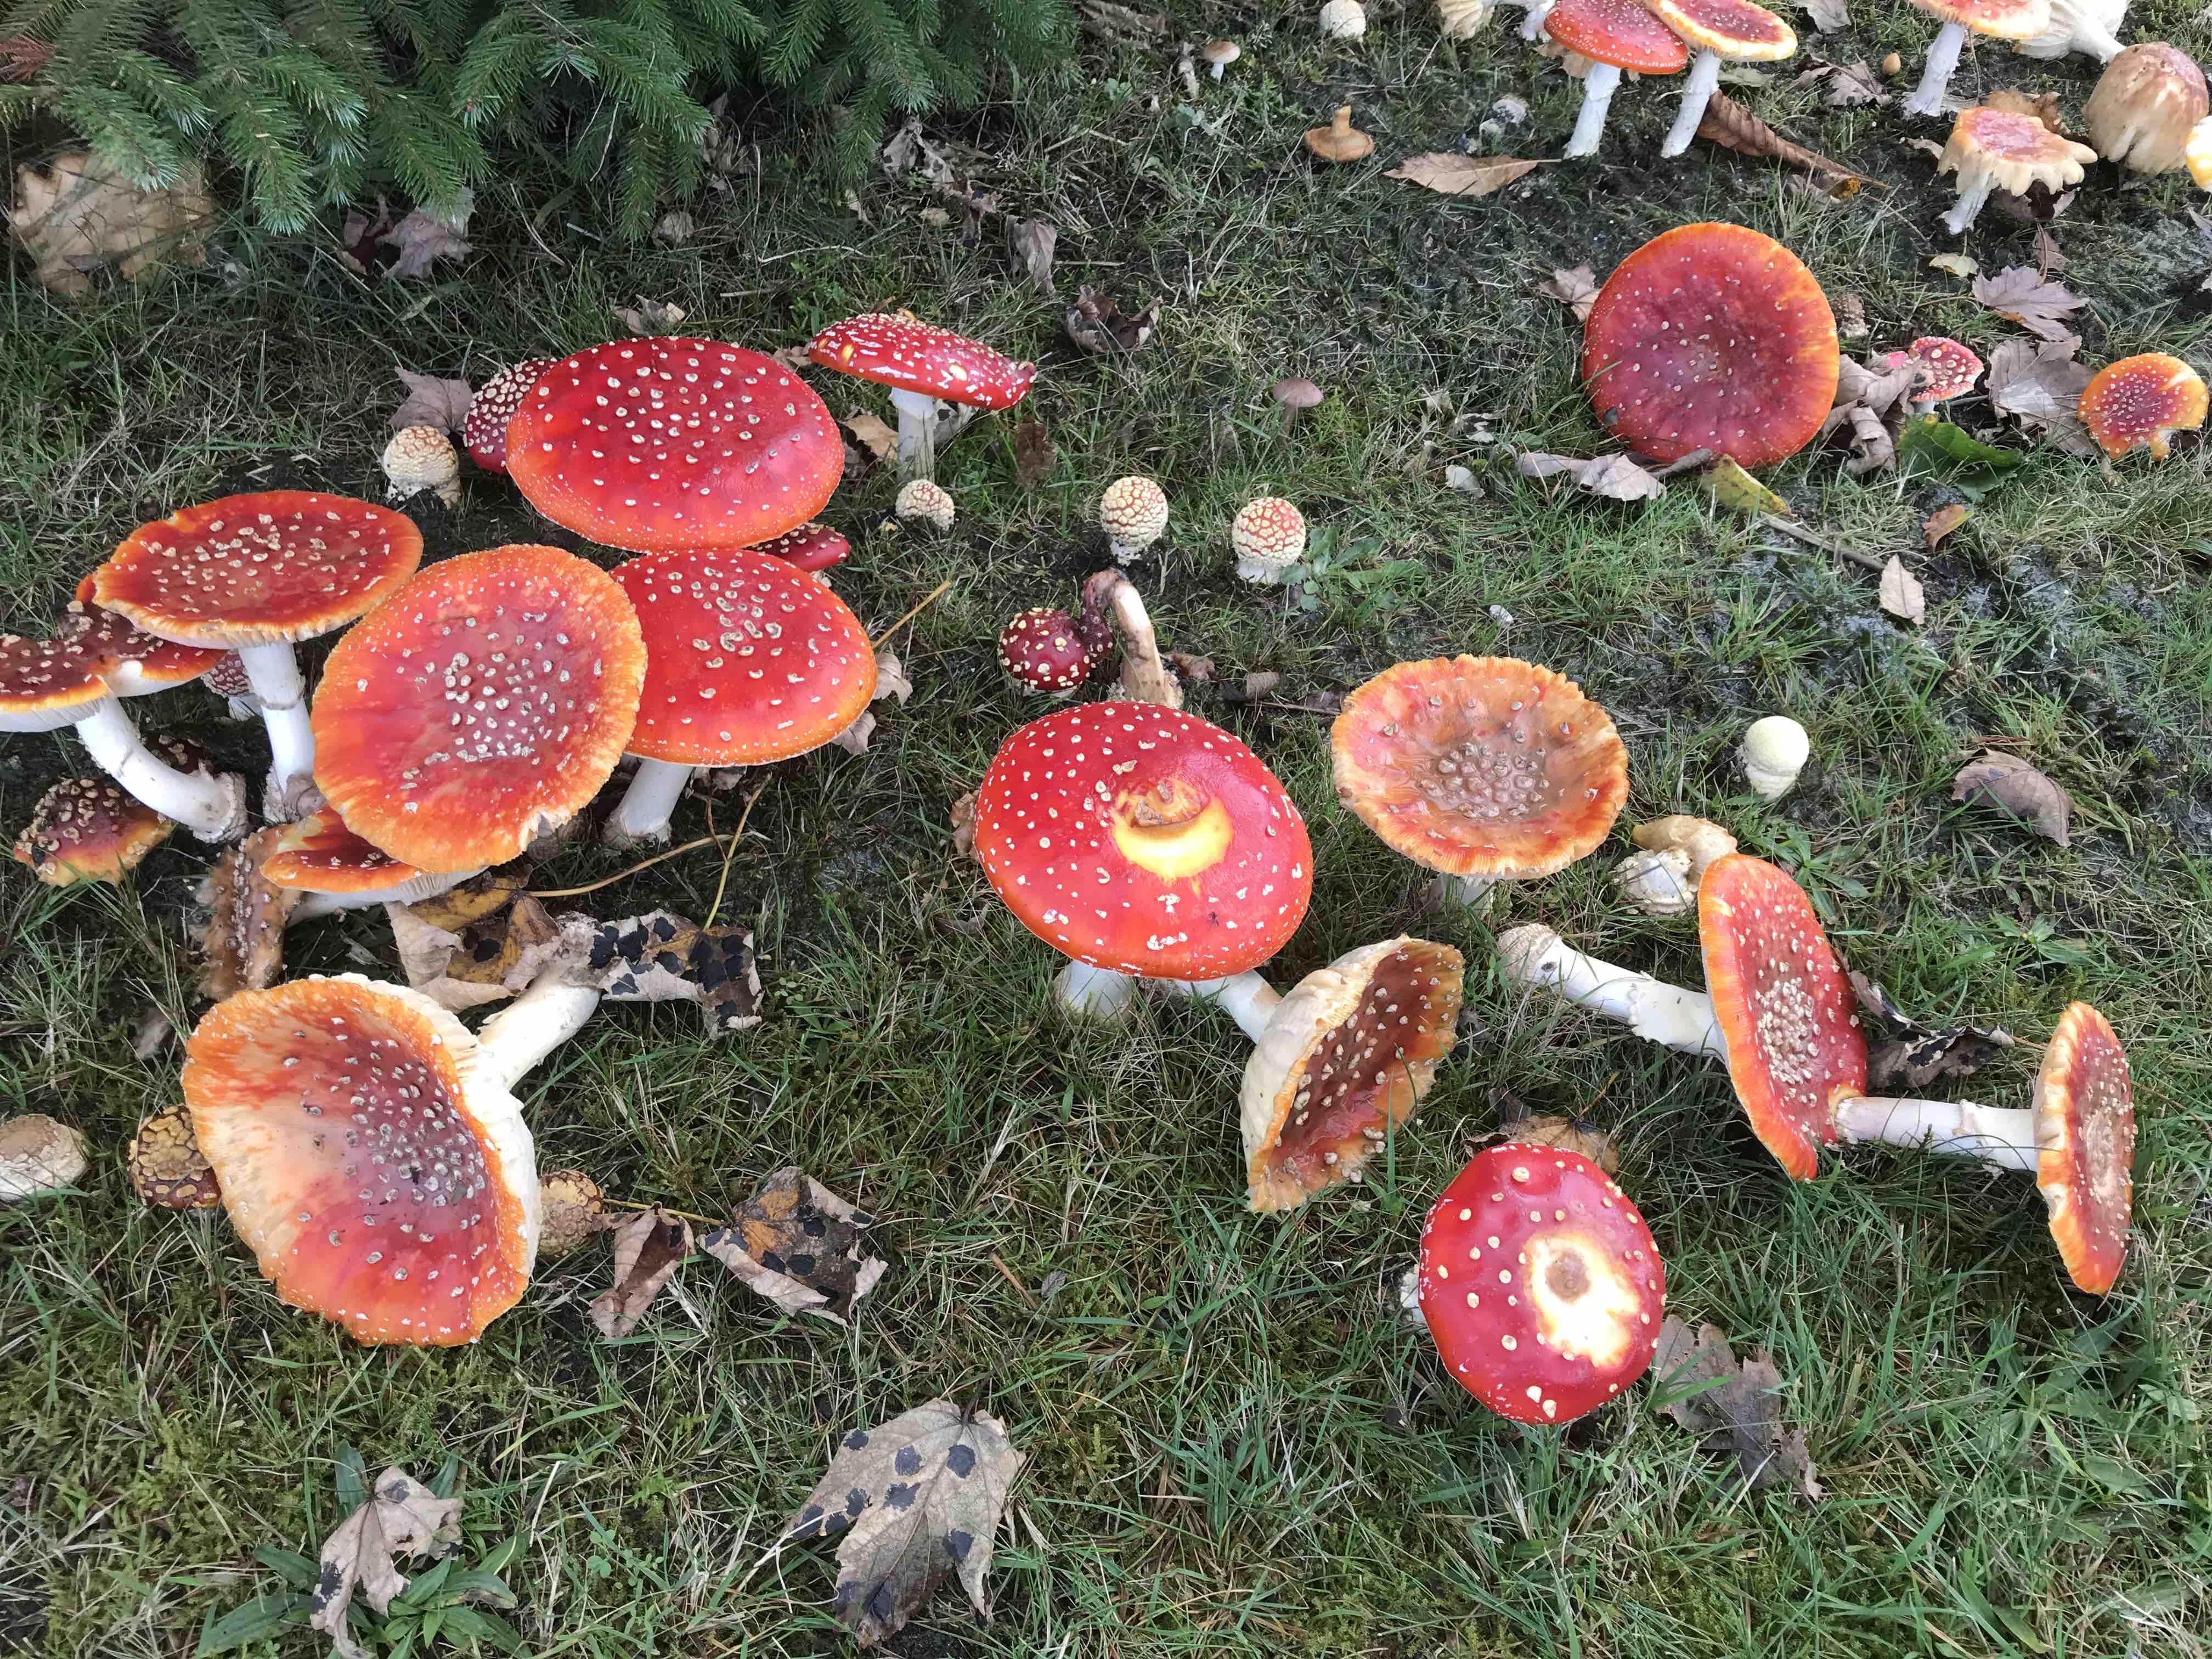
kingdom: Fungi
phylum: Basidiomycota
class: Agaricomycetes
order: Agaricales
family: Amanitaceae
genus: Amanita
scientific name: Amanita muscaria
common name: rød fluesvamp
